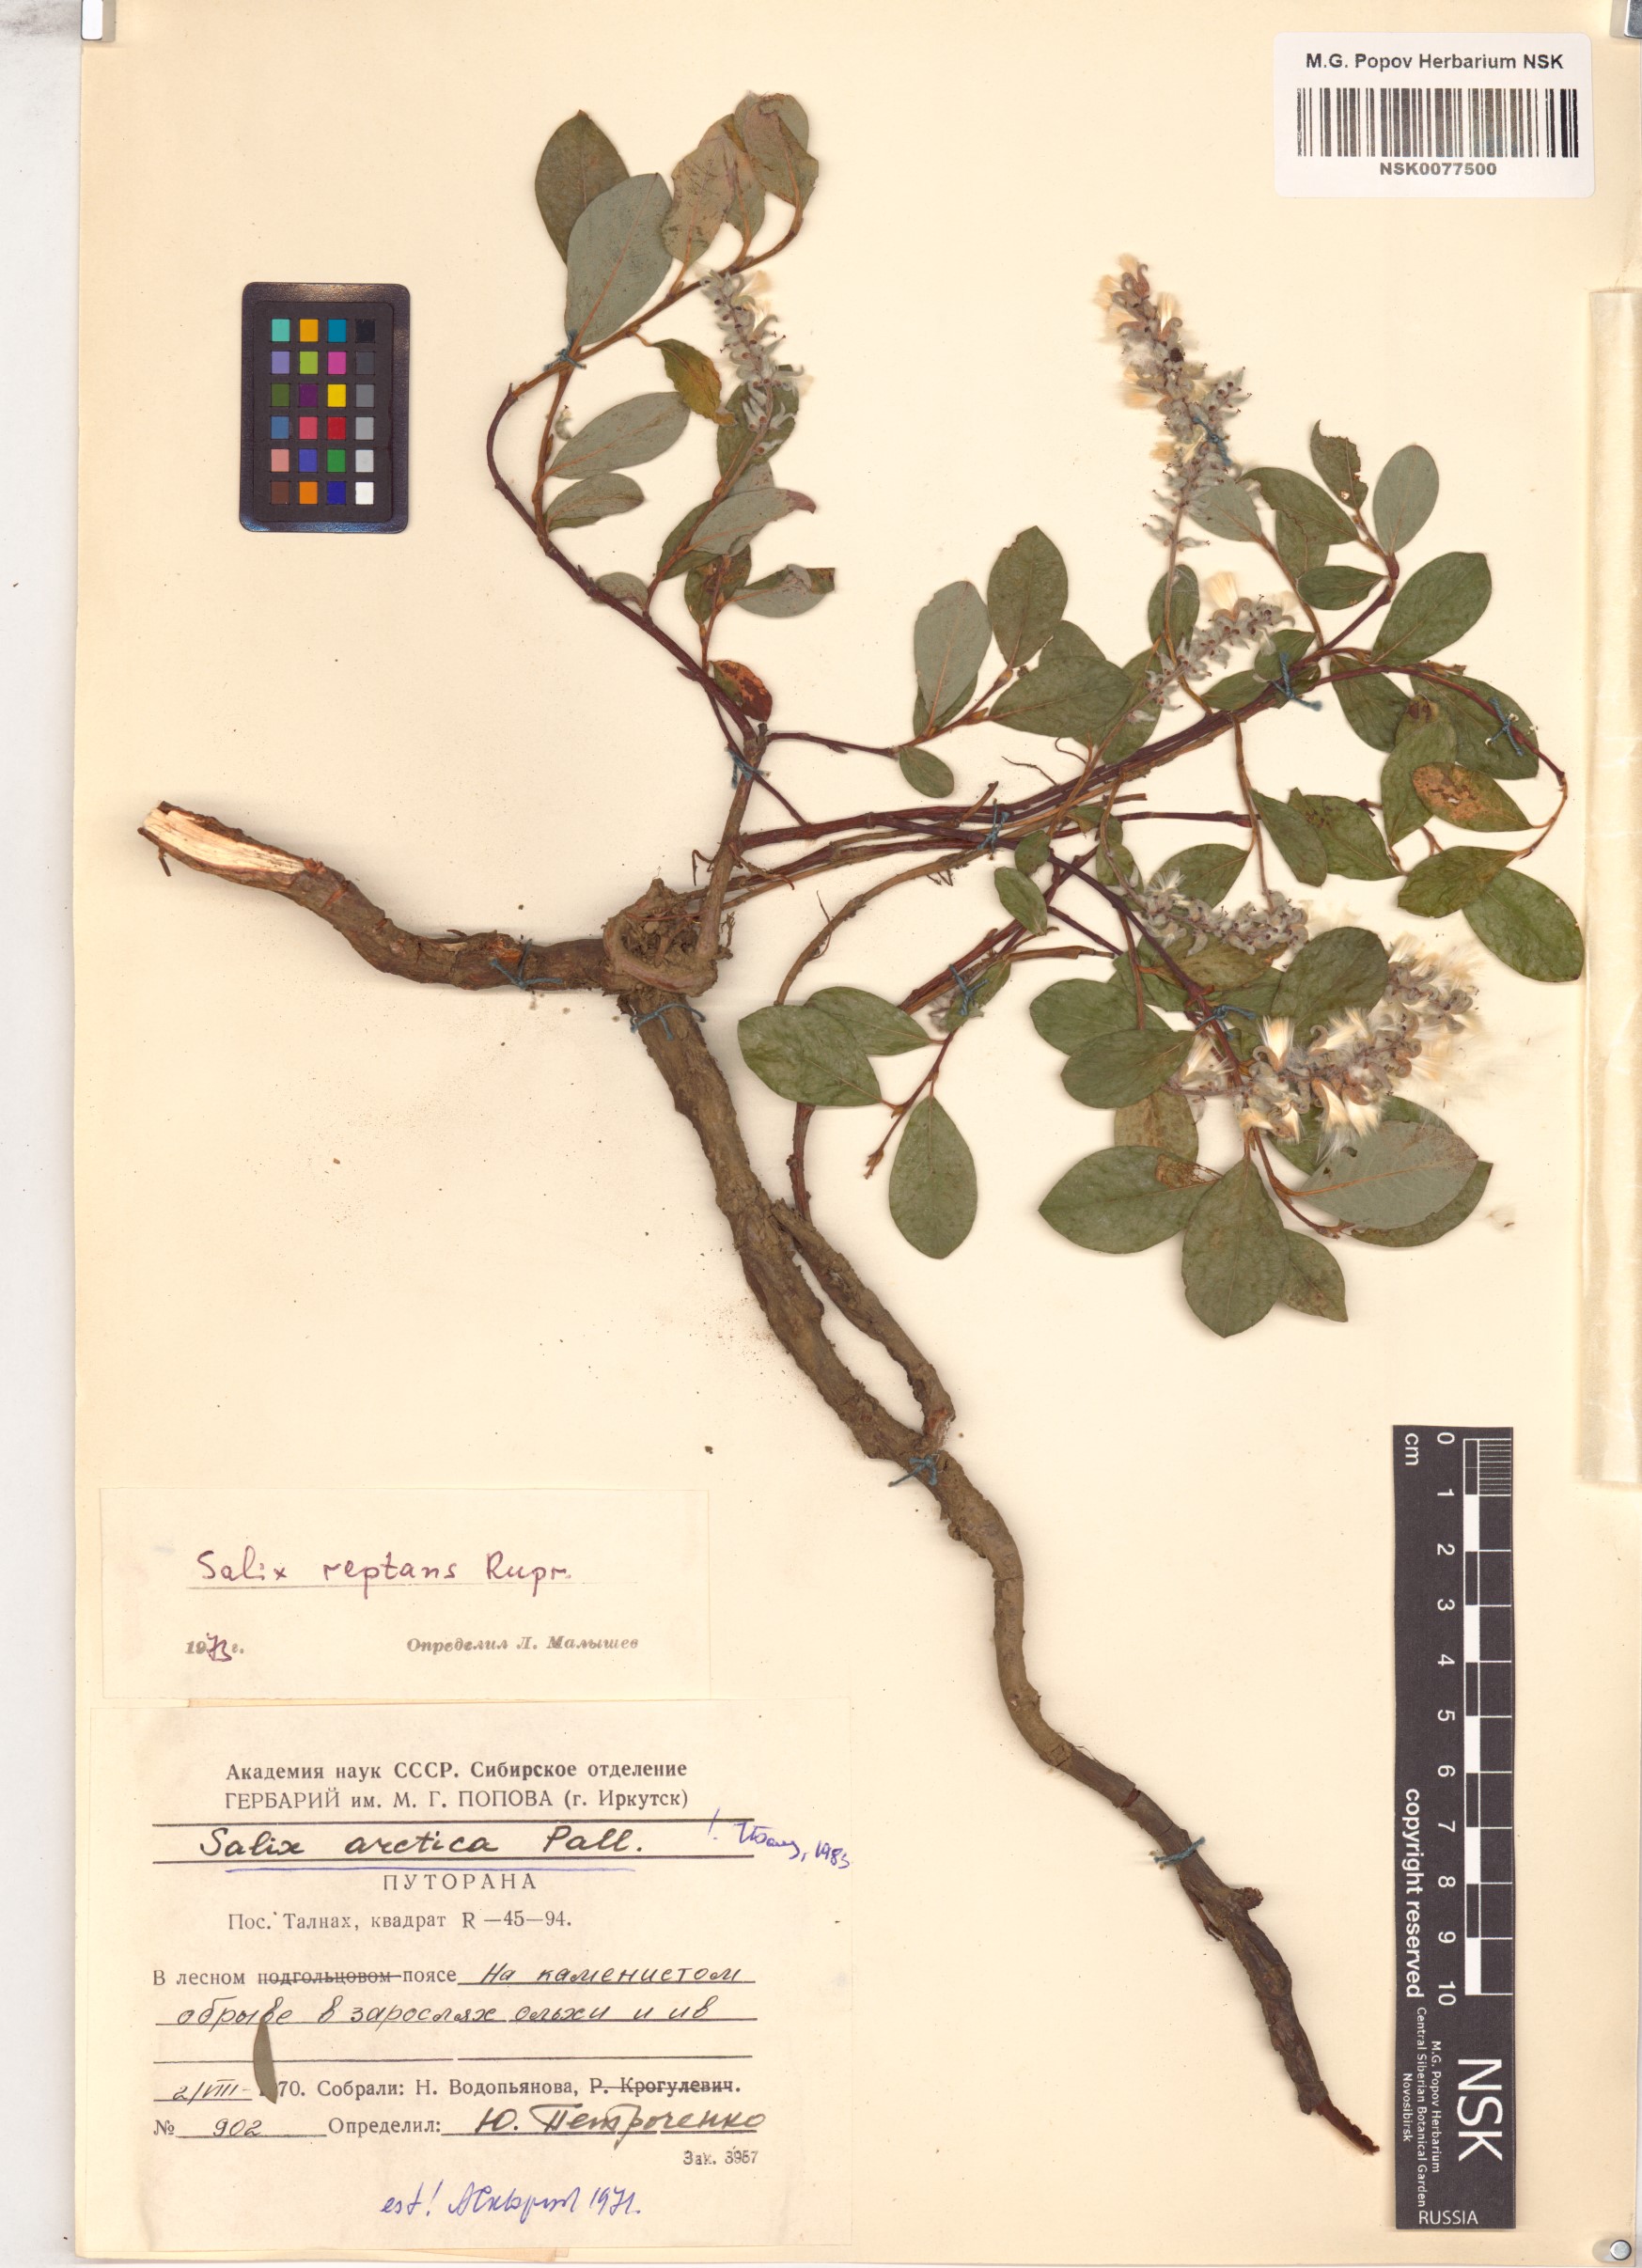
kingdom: Plantae
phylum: Tracheophyta
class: Magnoliopsida
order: Malpighiales
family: Salicaceae
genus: Salix
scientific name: Salix arctica
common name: Arctic willow
